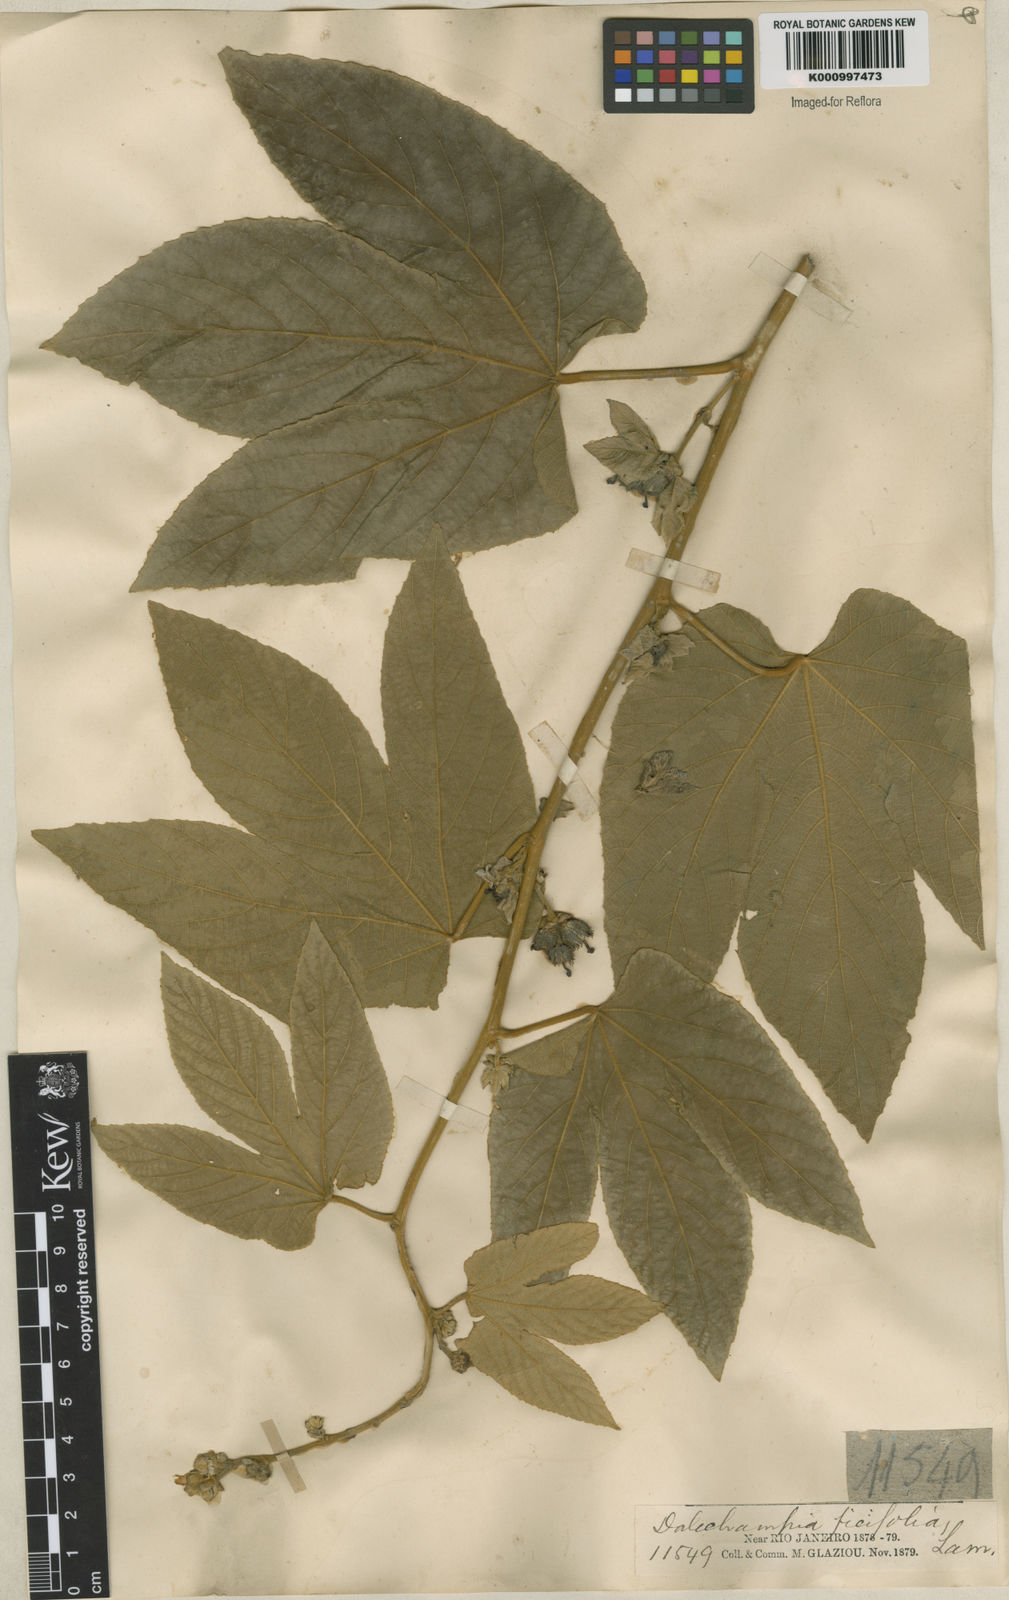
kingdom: Plantae
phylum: Tracheophyta
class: Magnoliopsida
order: Malpighiales
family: Euphorbiaceae
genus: Dalechampia
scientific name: Dalechampia ficifolia
